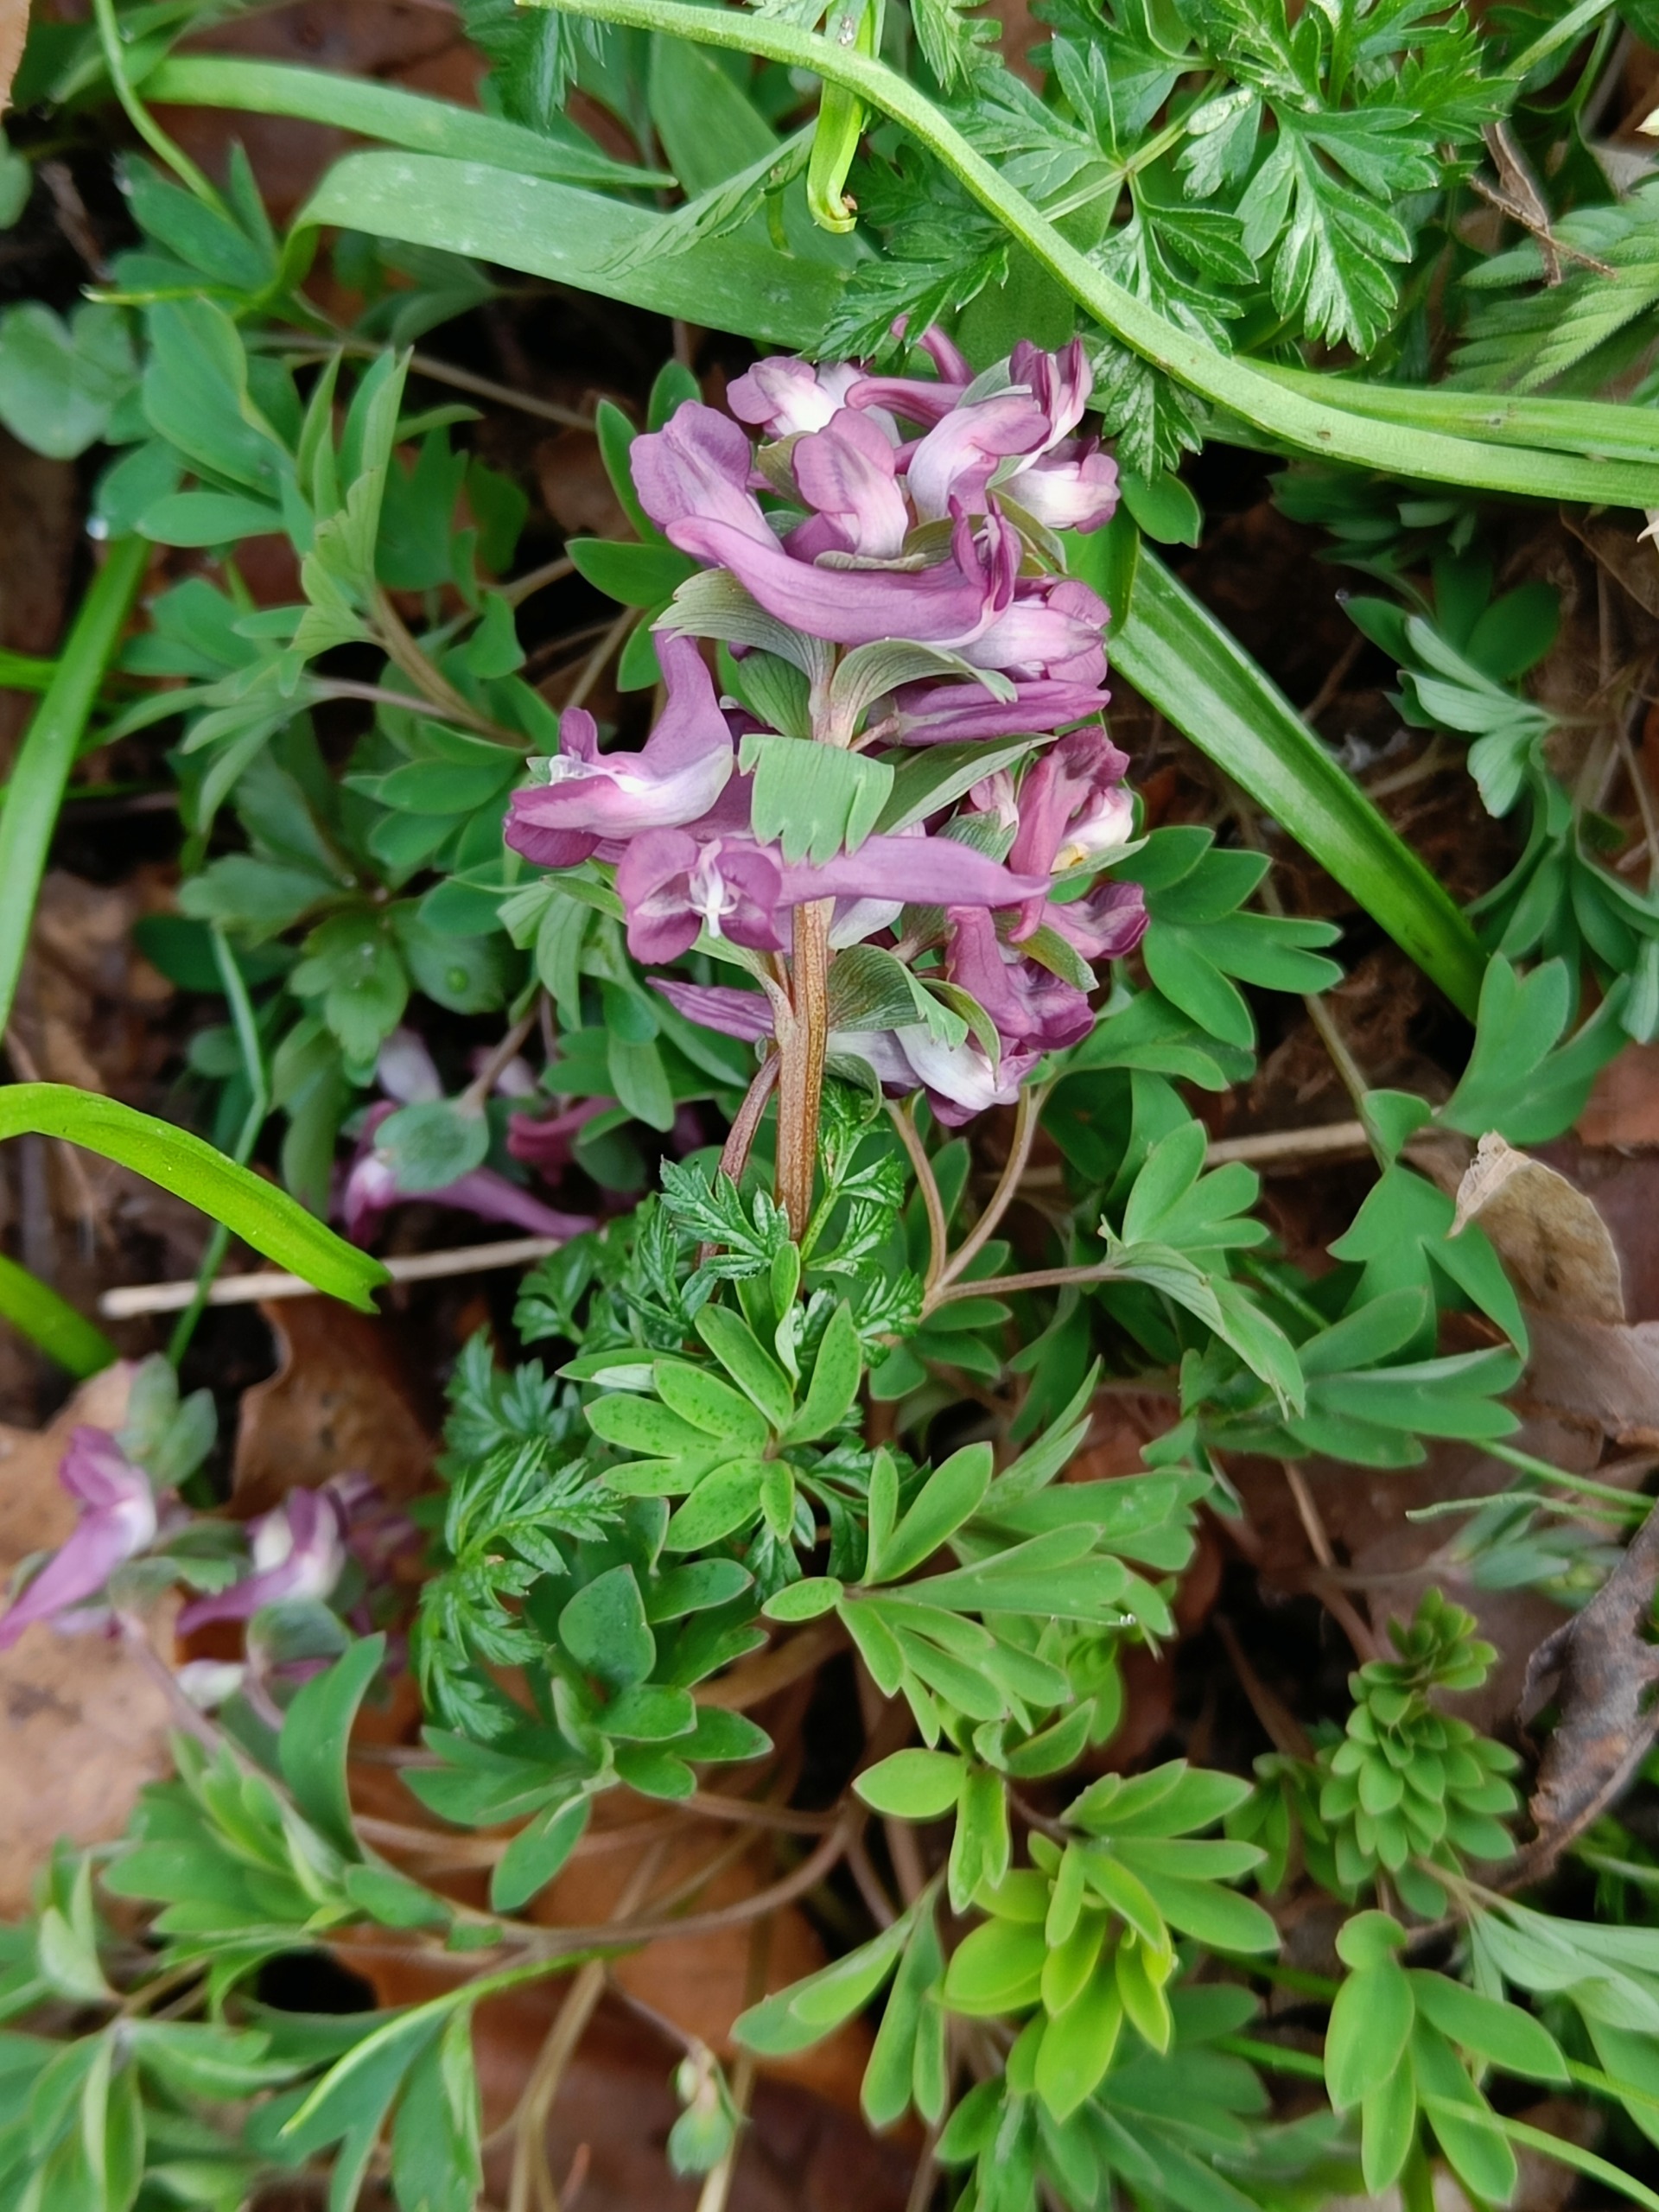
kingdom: Plantae
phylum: Tracheophyta
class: Magnoliopsida
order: Ranunculales
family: Papaveraceae
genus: Corydalis
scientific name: Corydalis solida
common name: Langstilket lærkespore
